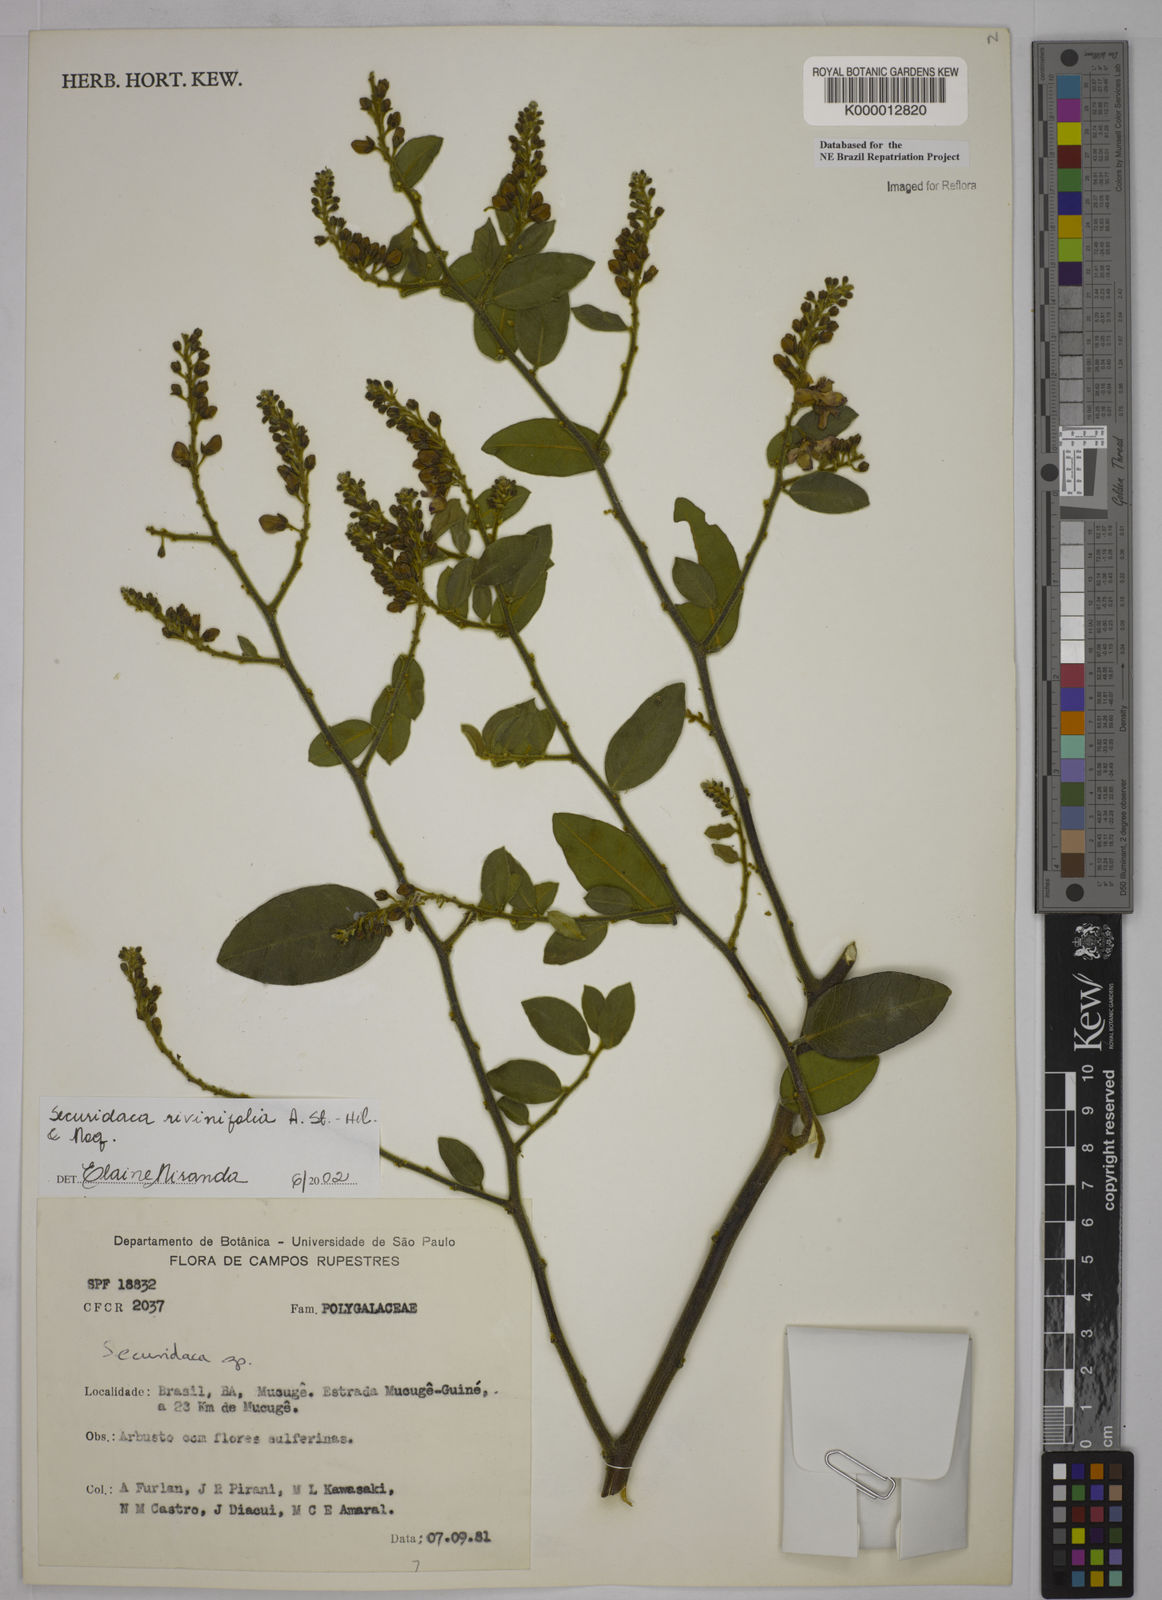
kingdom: Plantae
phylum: Tracheophyta
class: Magnoliopsida
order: Fabales
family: Polygalaceae
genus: Securidaca
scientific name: Securidaca rivinifolia
